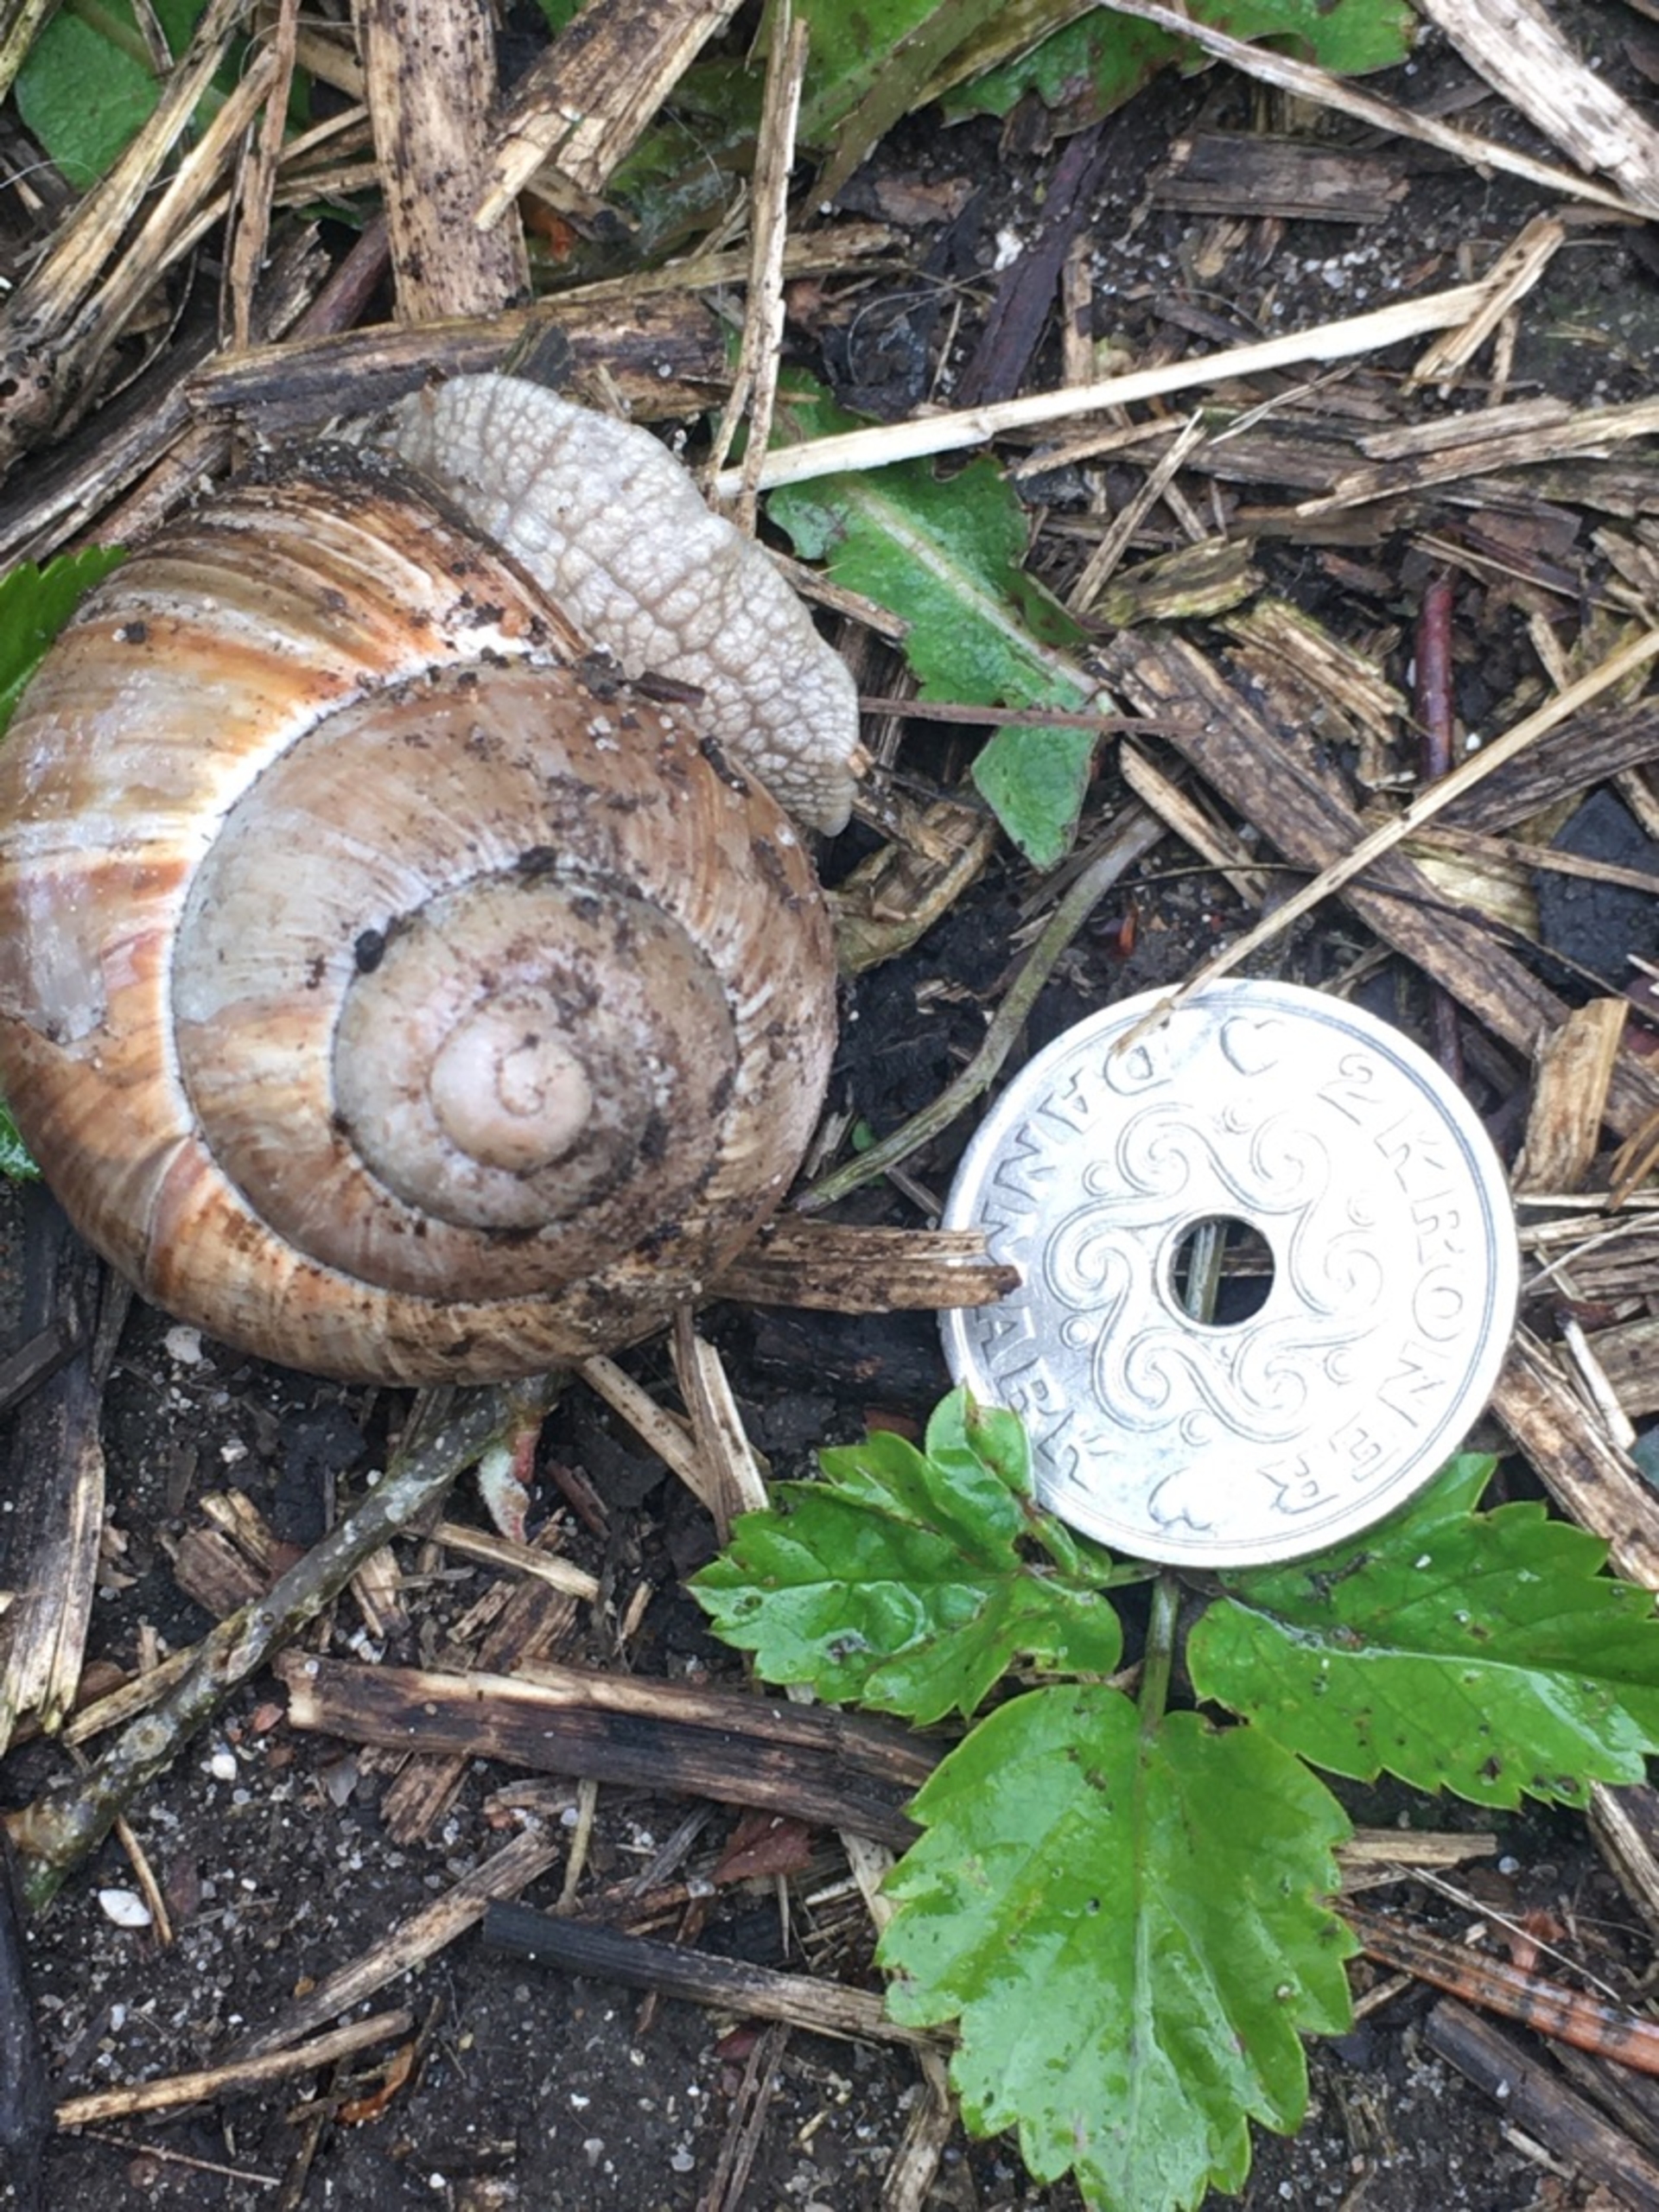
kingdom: Animalia
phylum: Mollusca
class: Gastropoda
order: Stylommatophora
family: Helicidae
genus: Helix
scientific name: Helix pomatia
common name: Vinbjergsnegl
